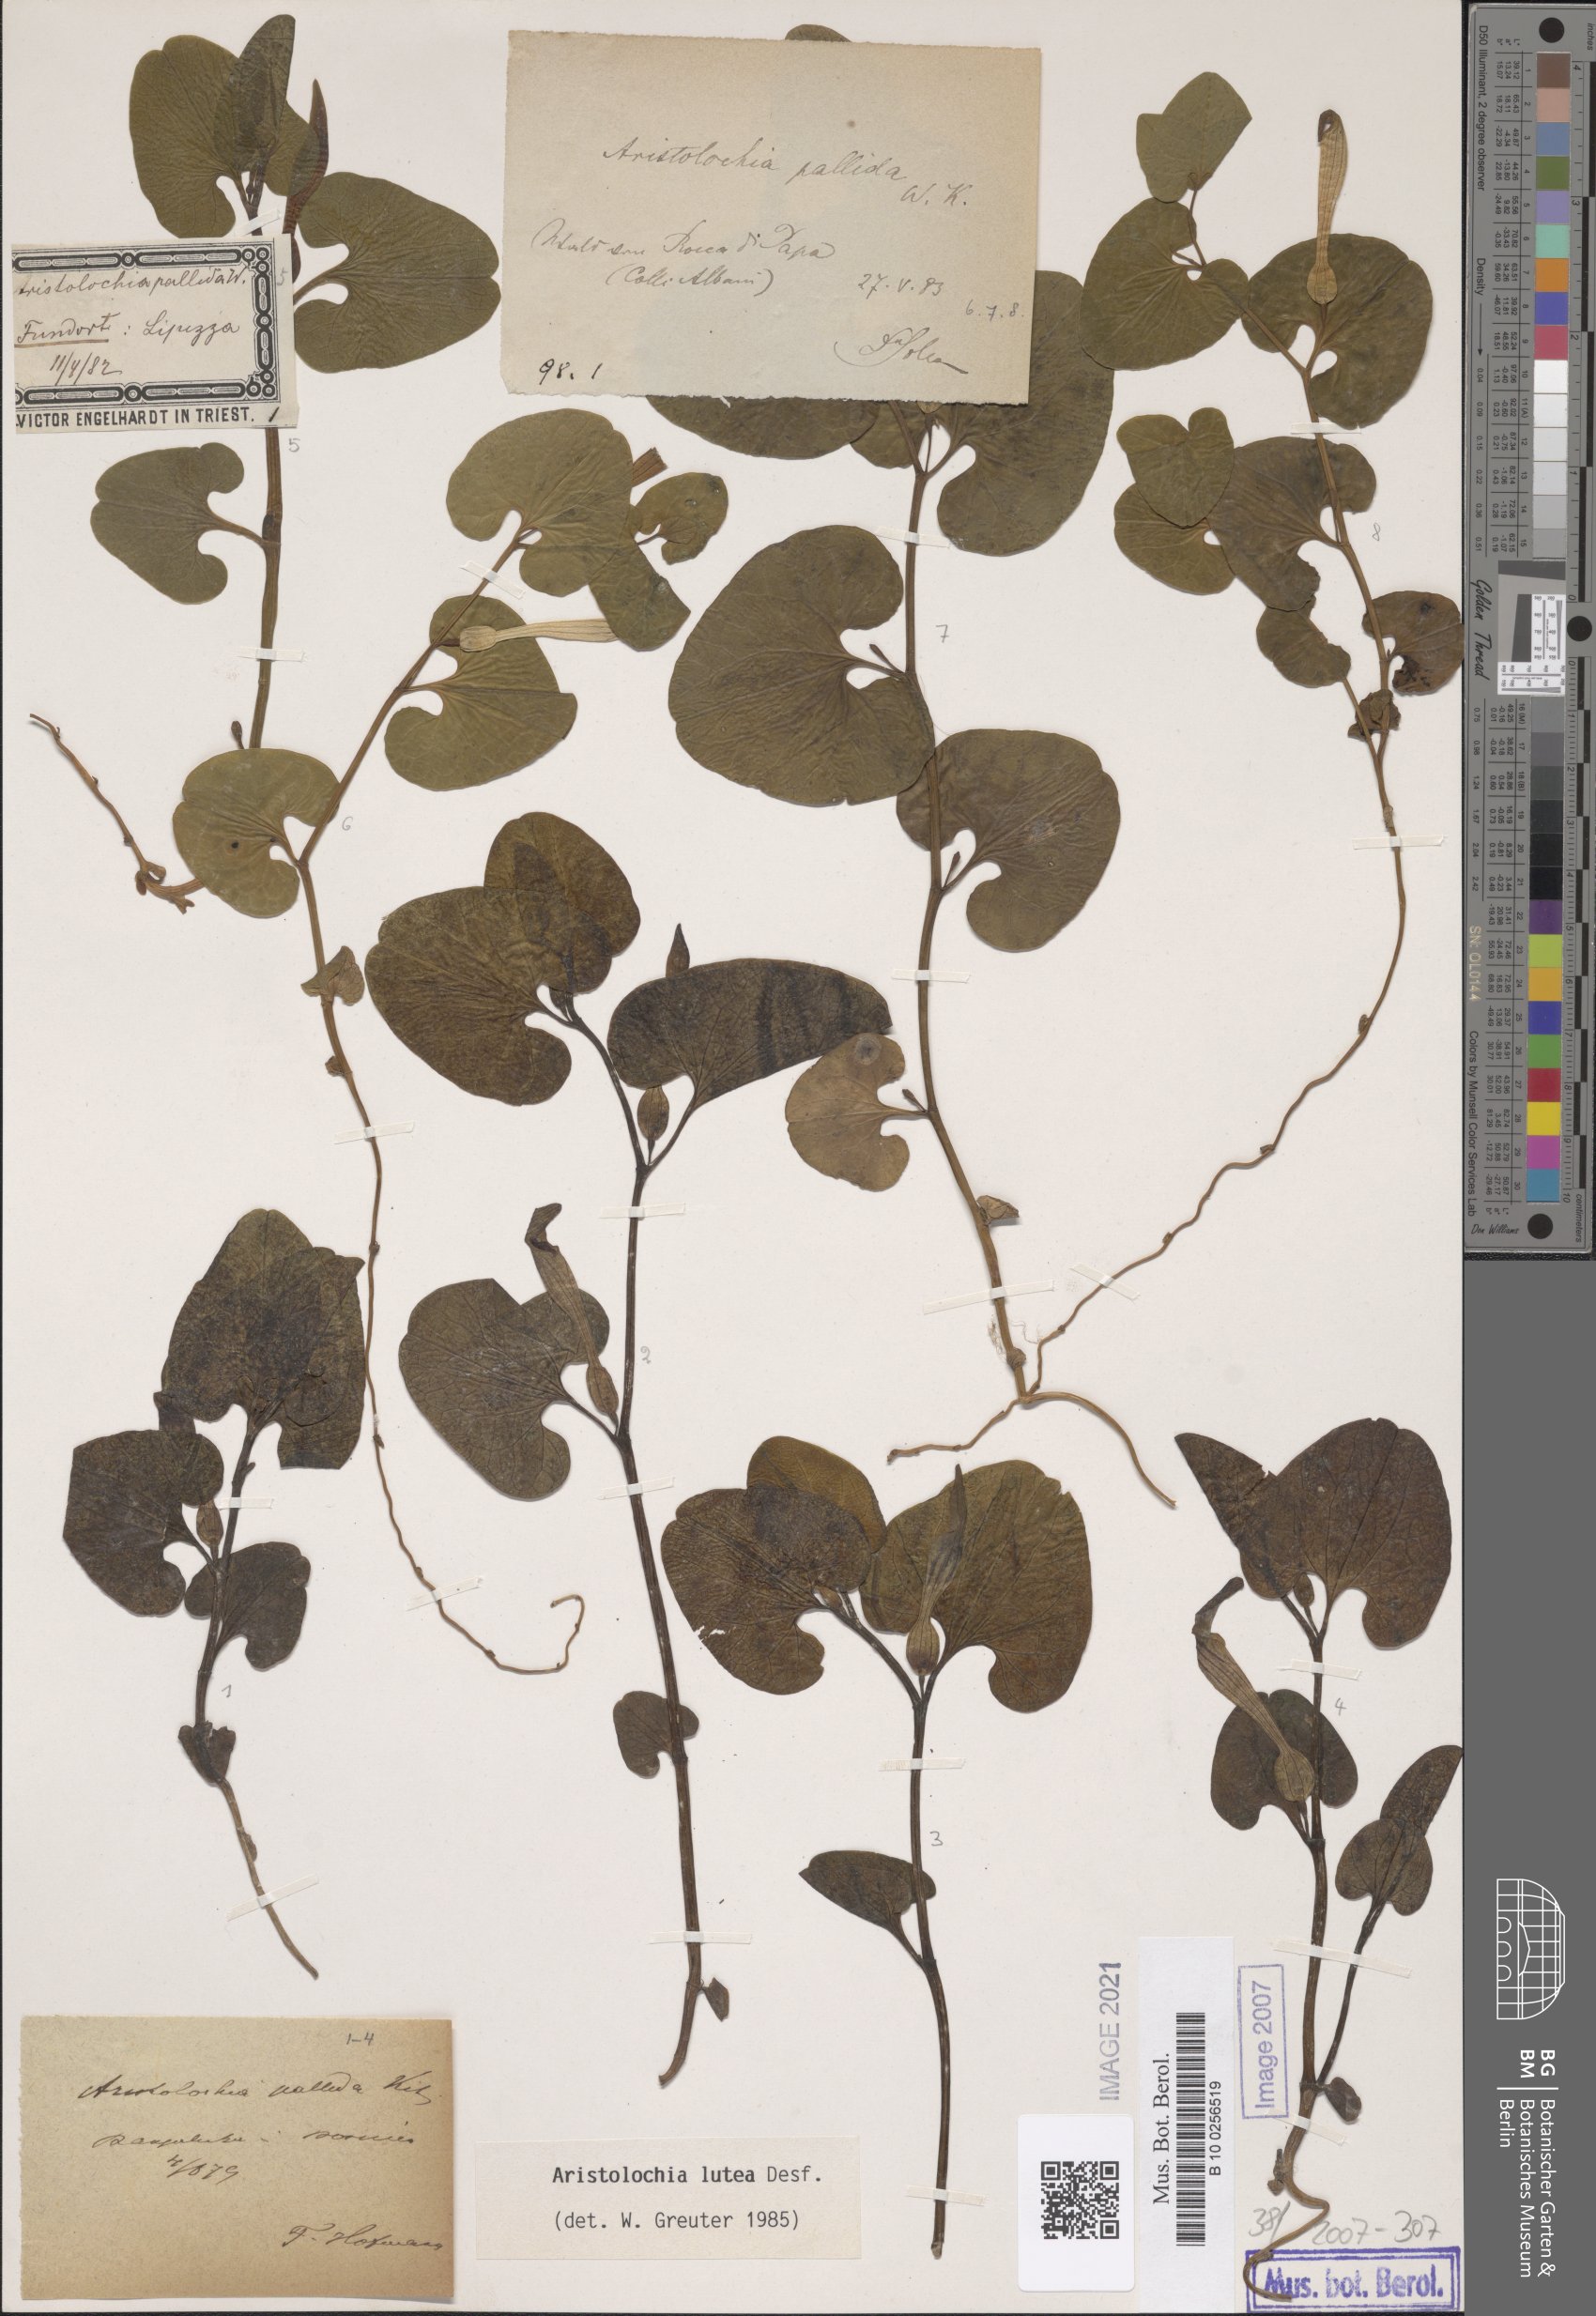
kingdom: Plantae
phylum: Tracheophyta
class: Magnoliopsida
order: Piperales
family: Aristolochiaceae
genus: Aristolochia
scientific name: Aristolochia lutea
